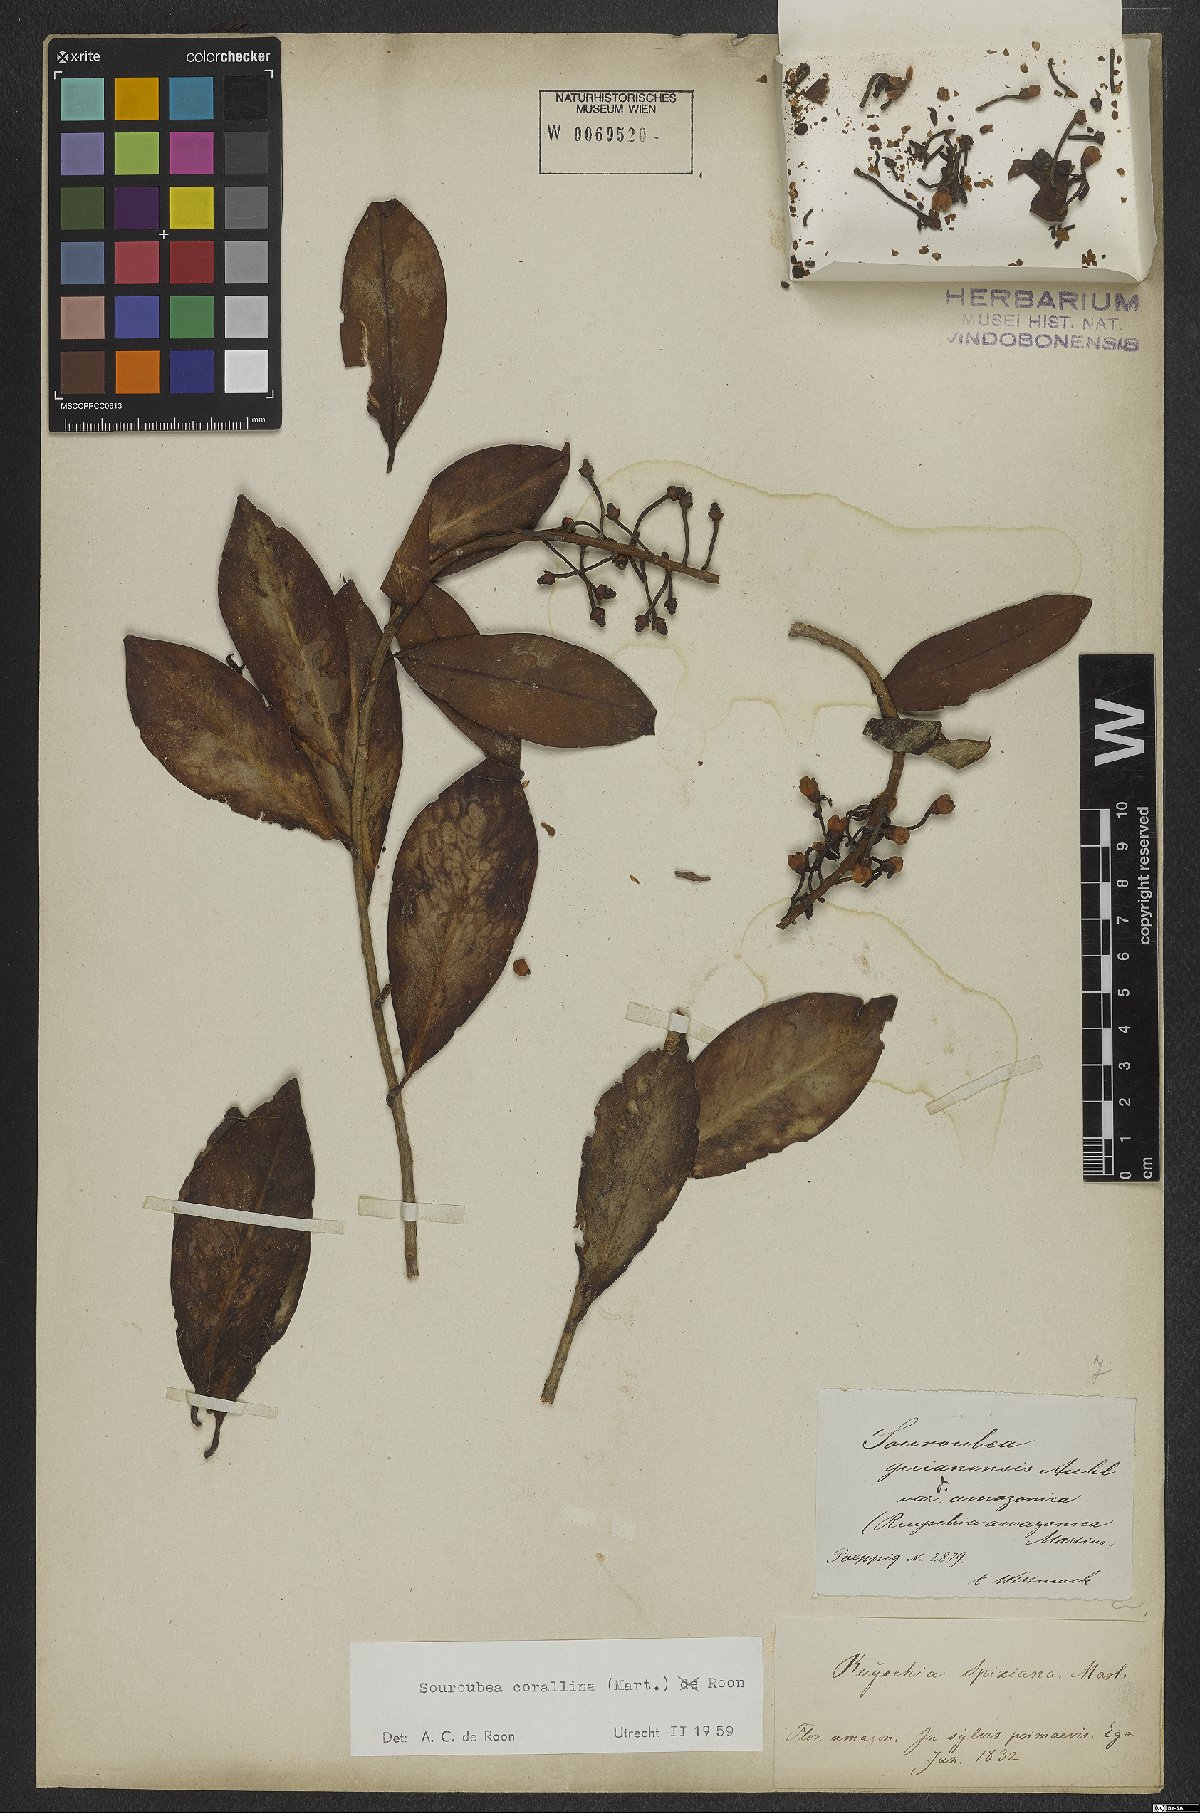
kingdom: Plantae
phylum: Tracheophyta
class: Magnoliopsida
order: Ericales
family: Marcgraviaceae
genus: Souroubea
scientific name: Souroubea corallina
